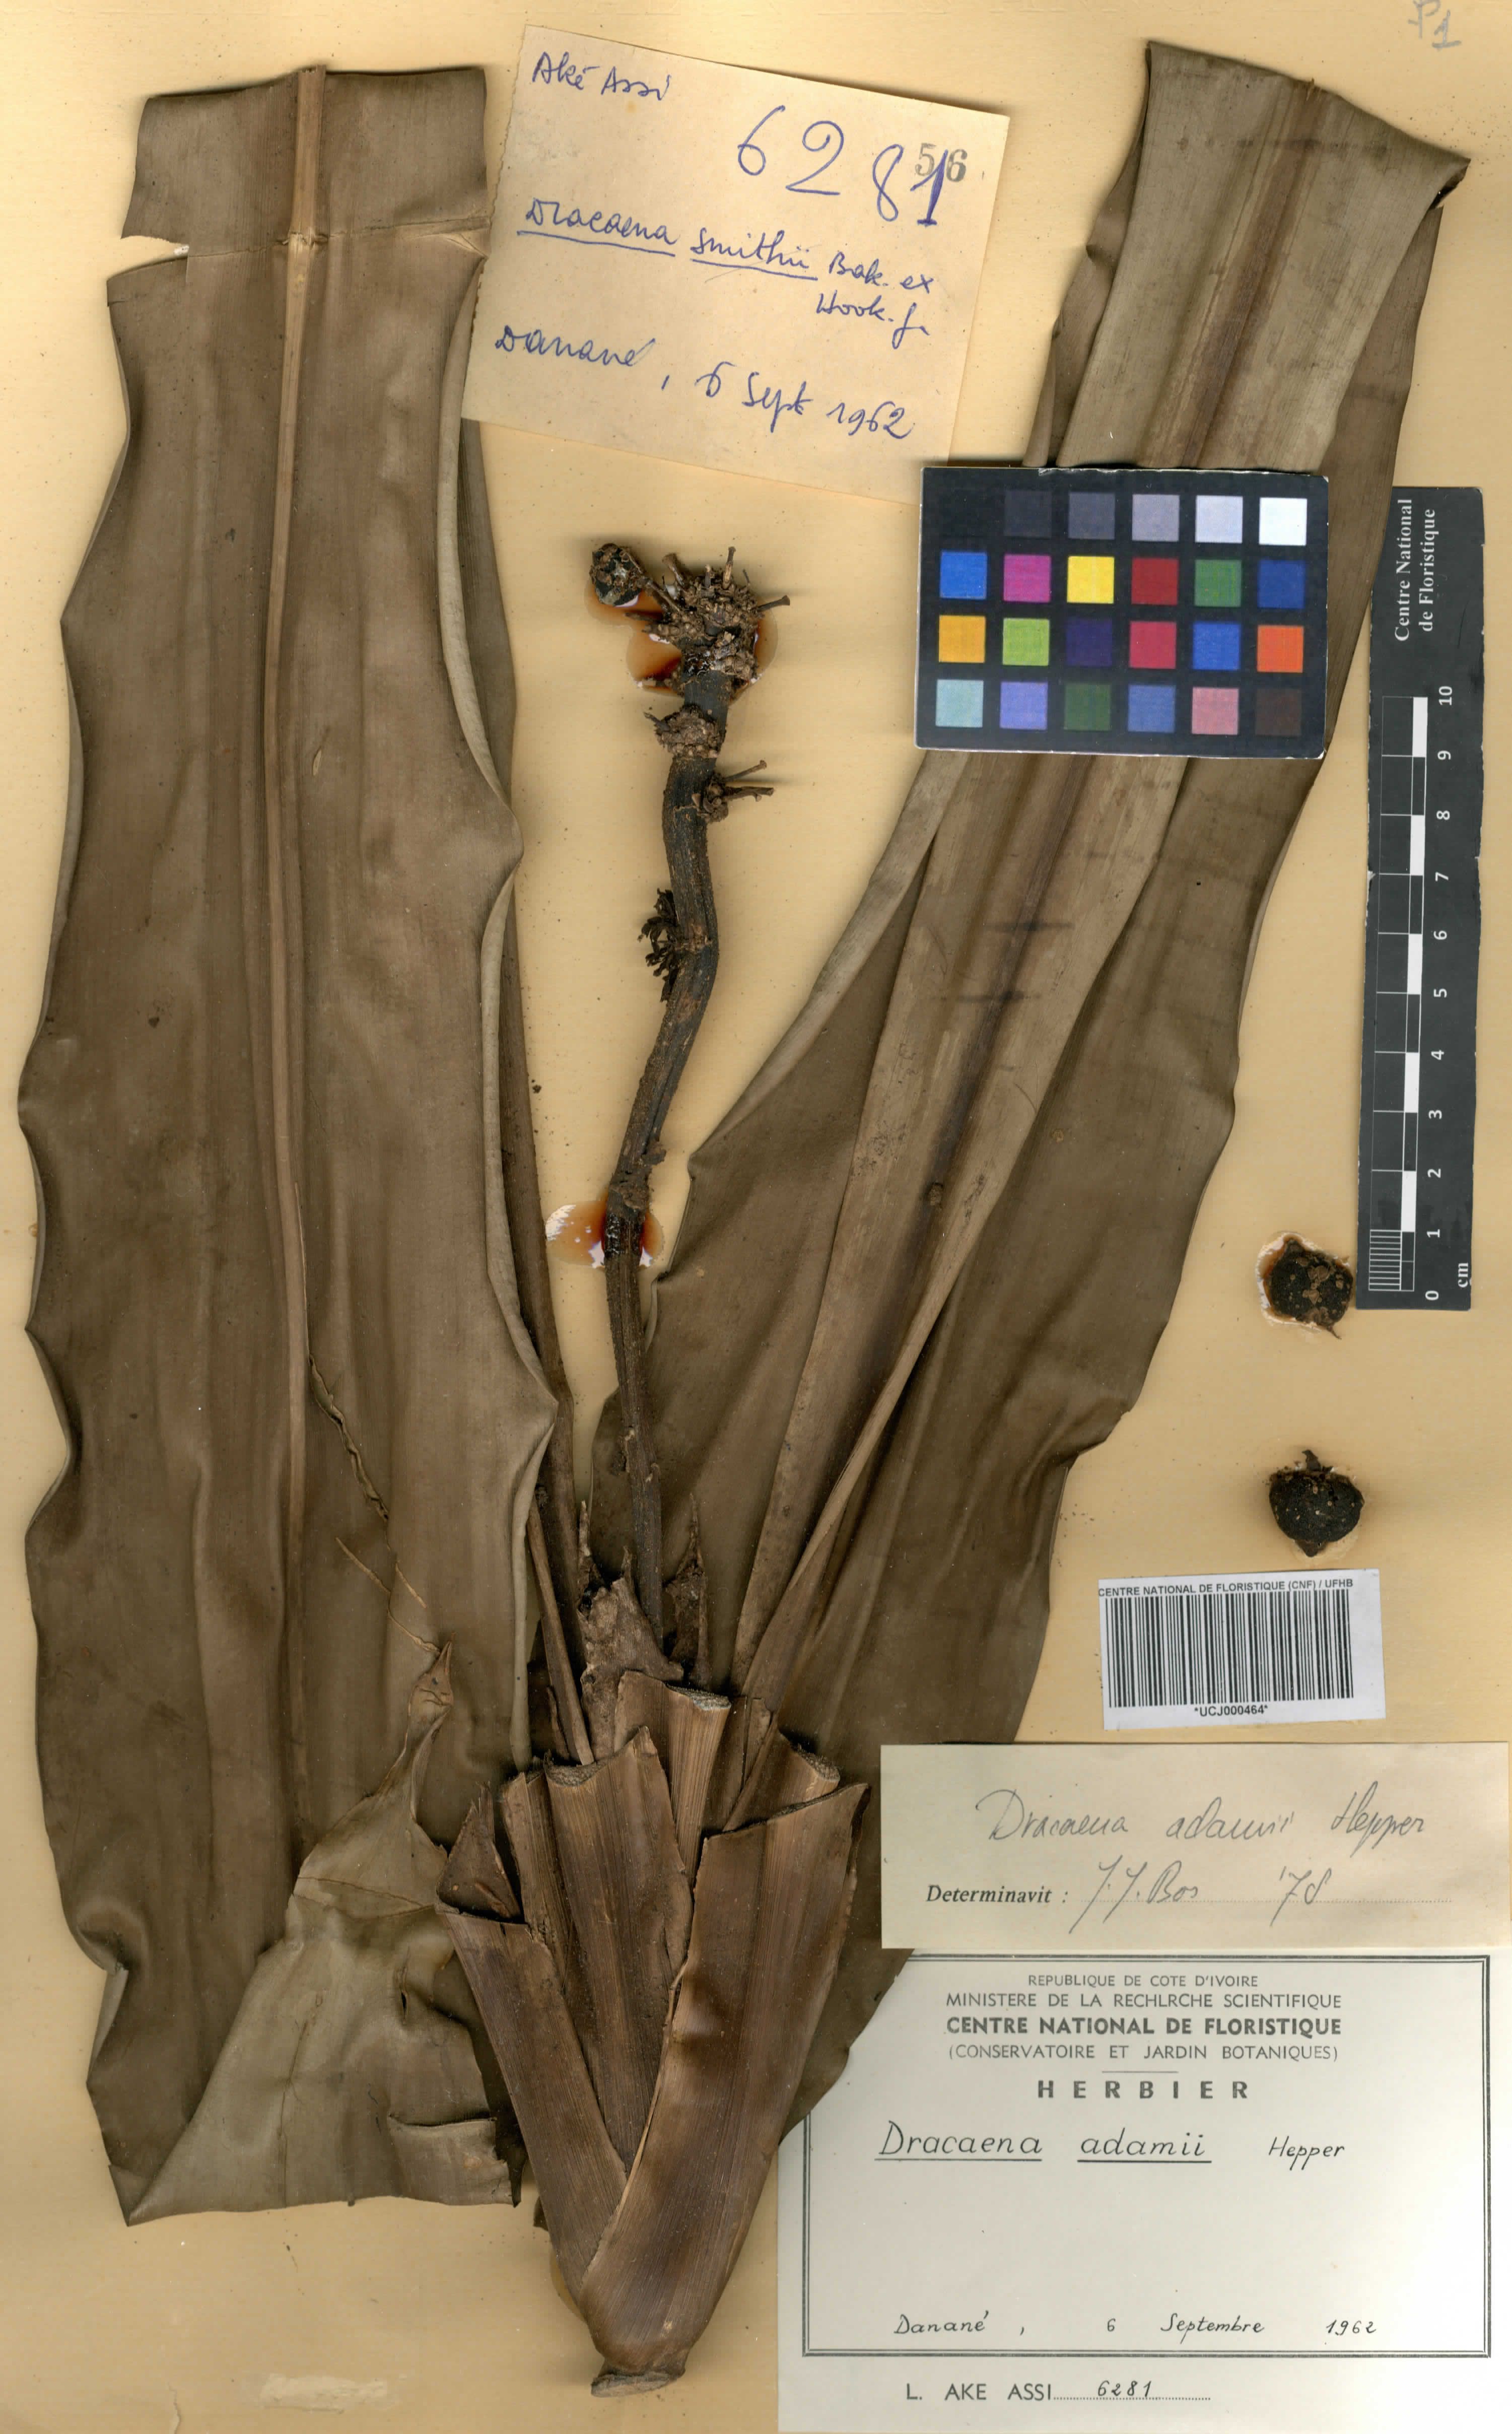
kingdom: Plantae
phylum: Tracheophyta
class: Liliopsida
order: Asparagales
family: Asparagaceae
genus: Dracaena
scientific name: Dracaena adamii
